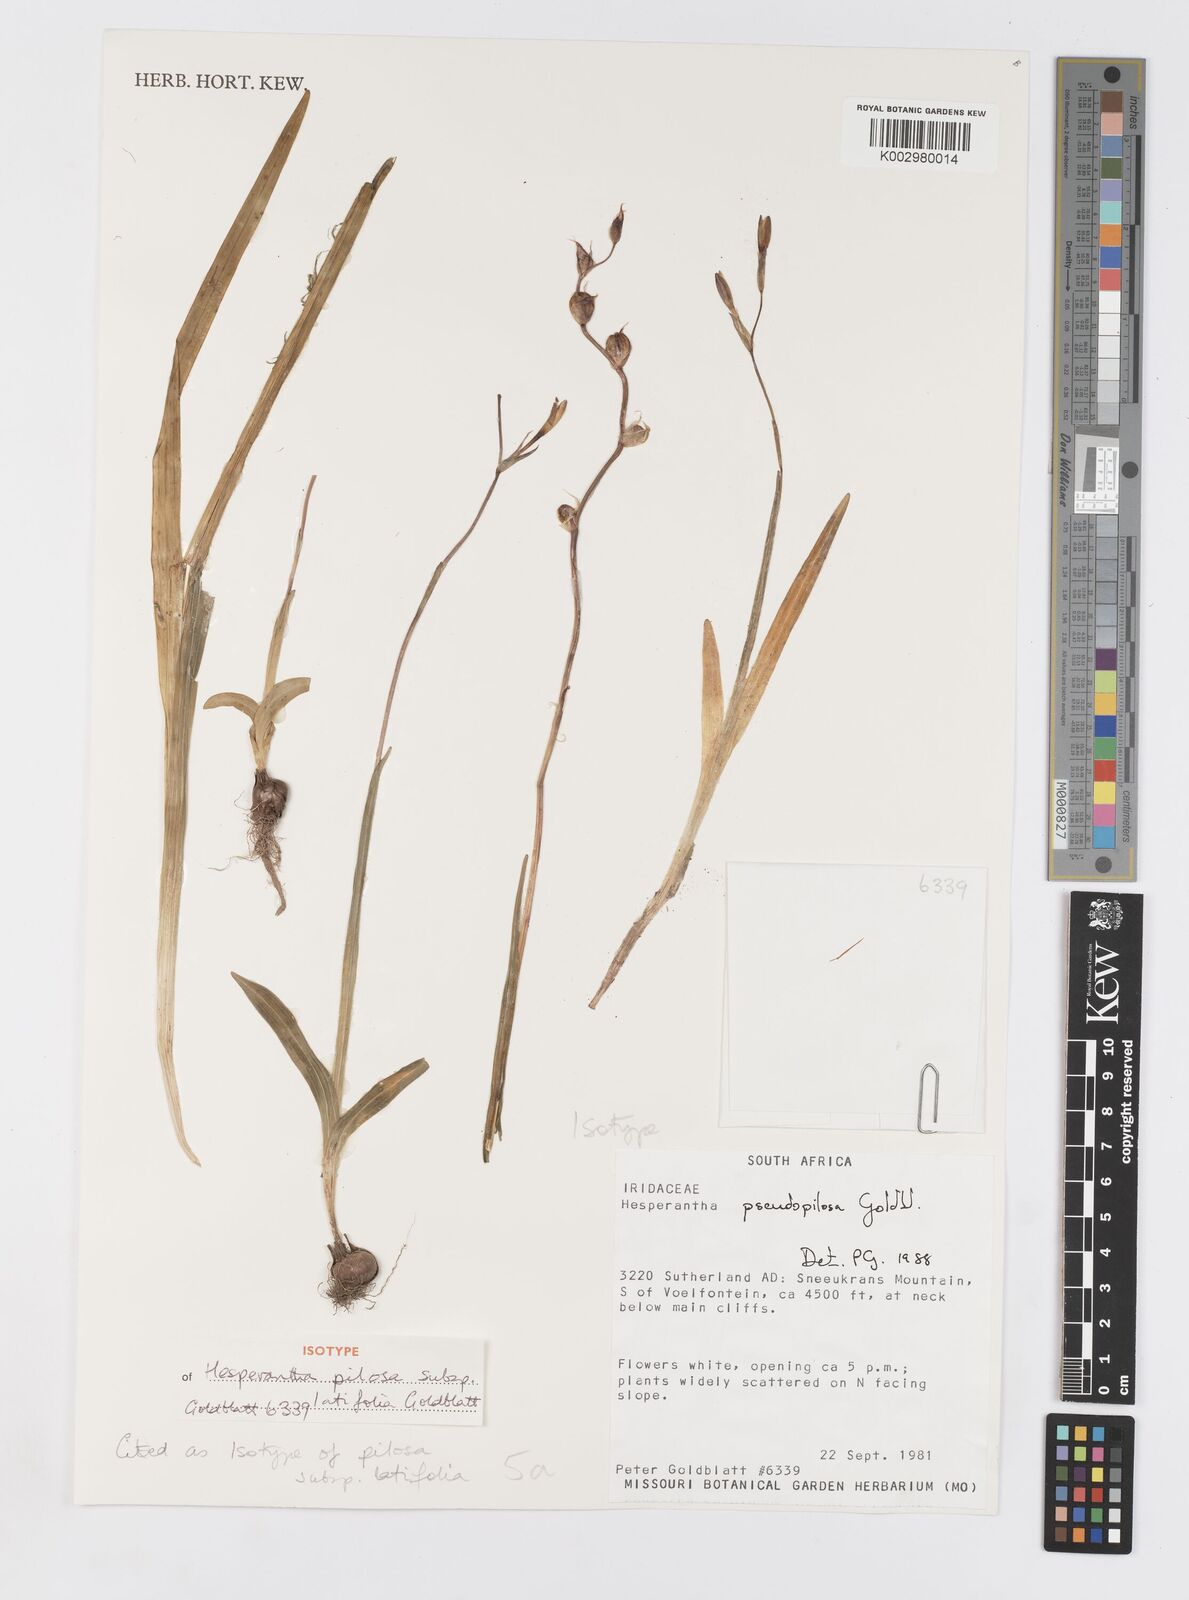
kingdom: Plantae
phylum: Tracheophyta
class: Liliopsida
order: Asparagales
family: Iridaceae
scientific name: Iridaceae
